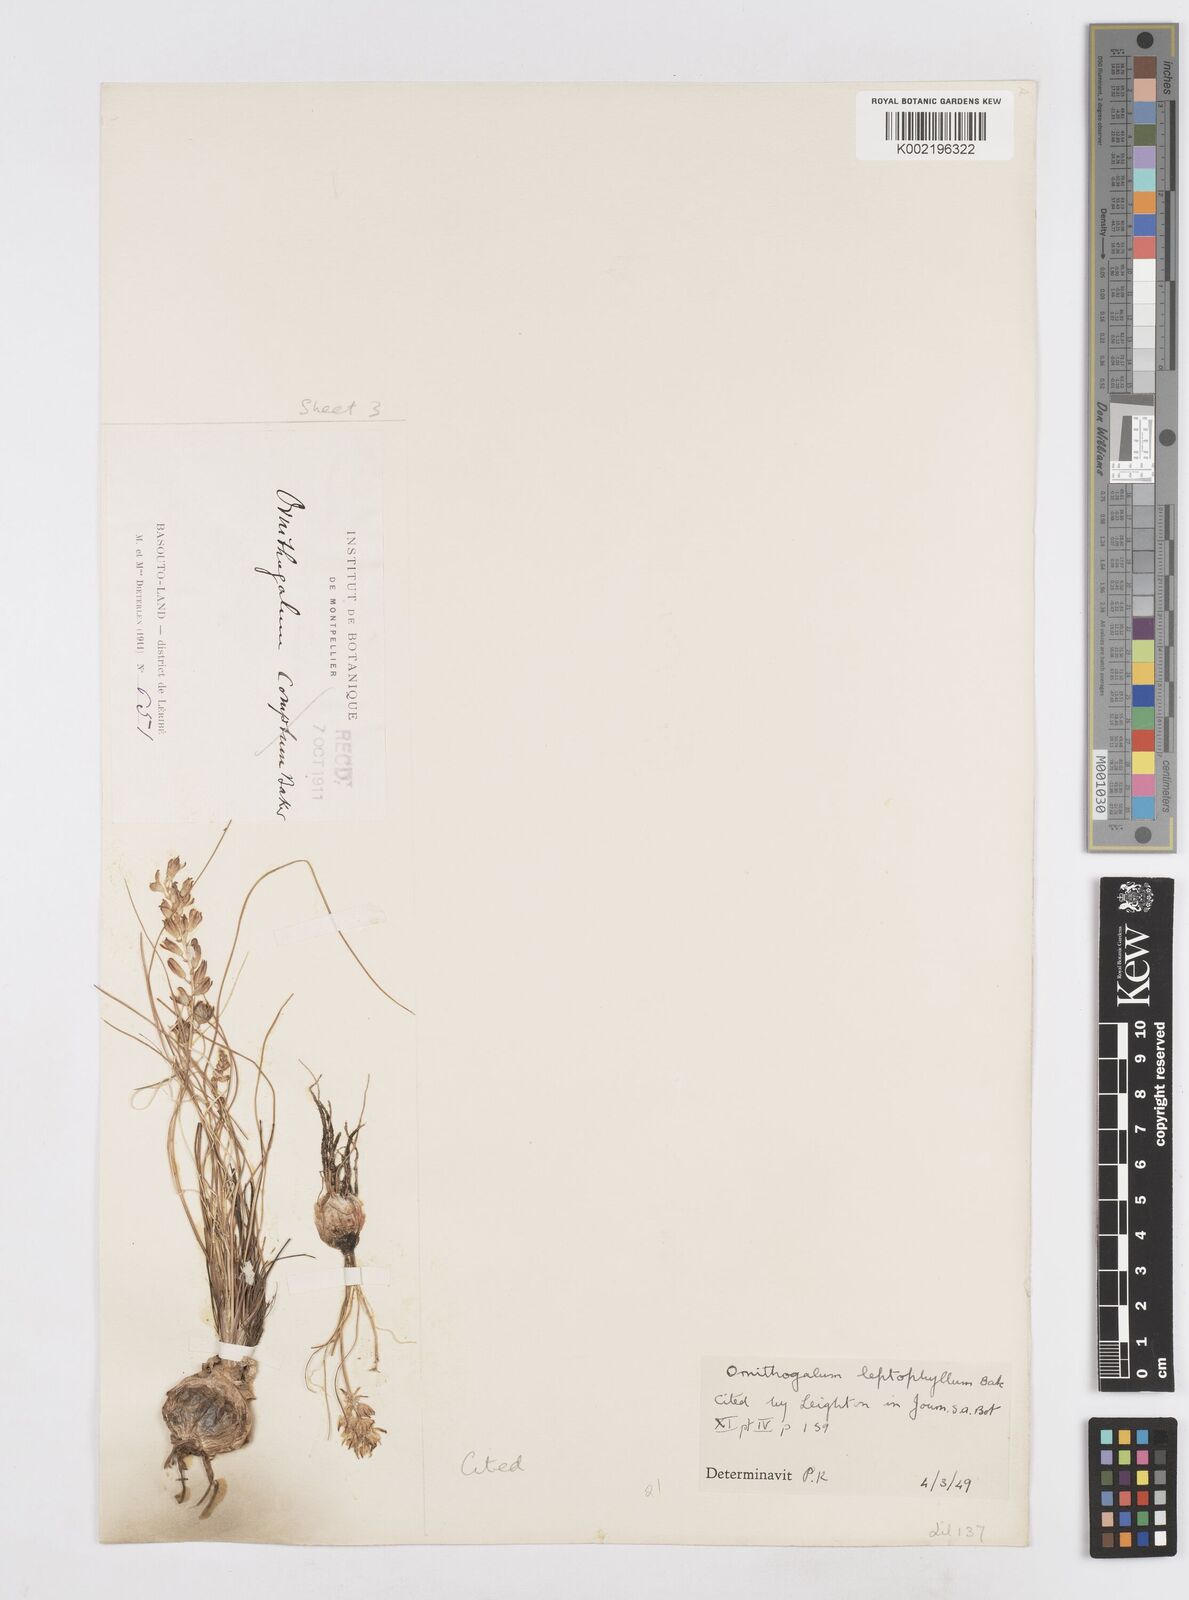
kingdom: Plantae
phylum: Tracheophyta
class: Liliopsida
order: Asparagales
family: Asparagaceae
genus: Ornithogalum
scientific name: Ornithogalum juncifolium
